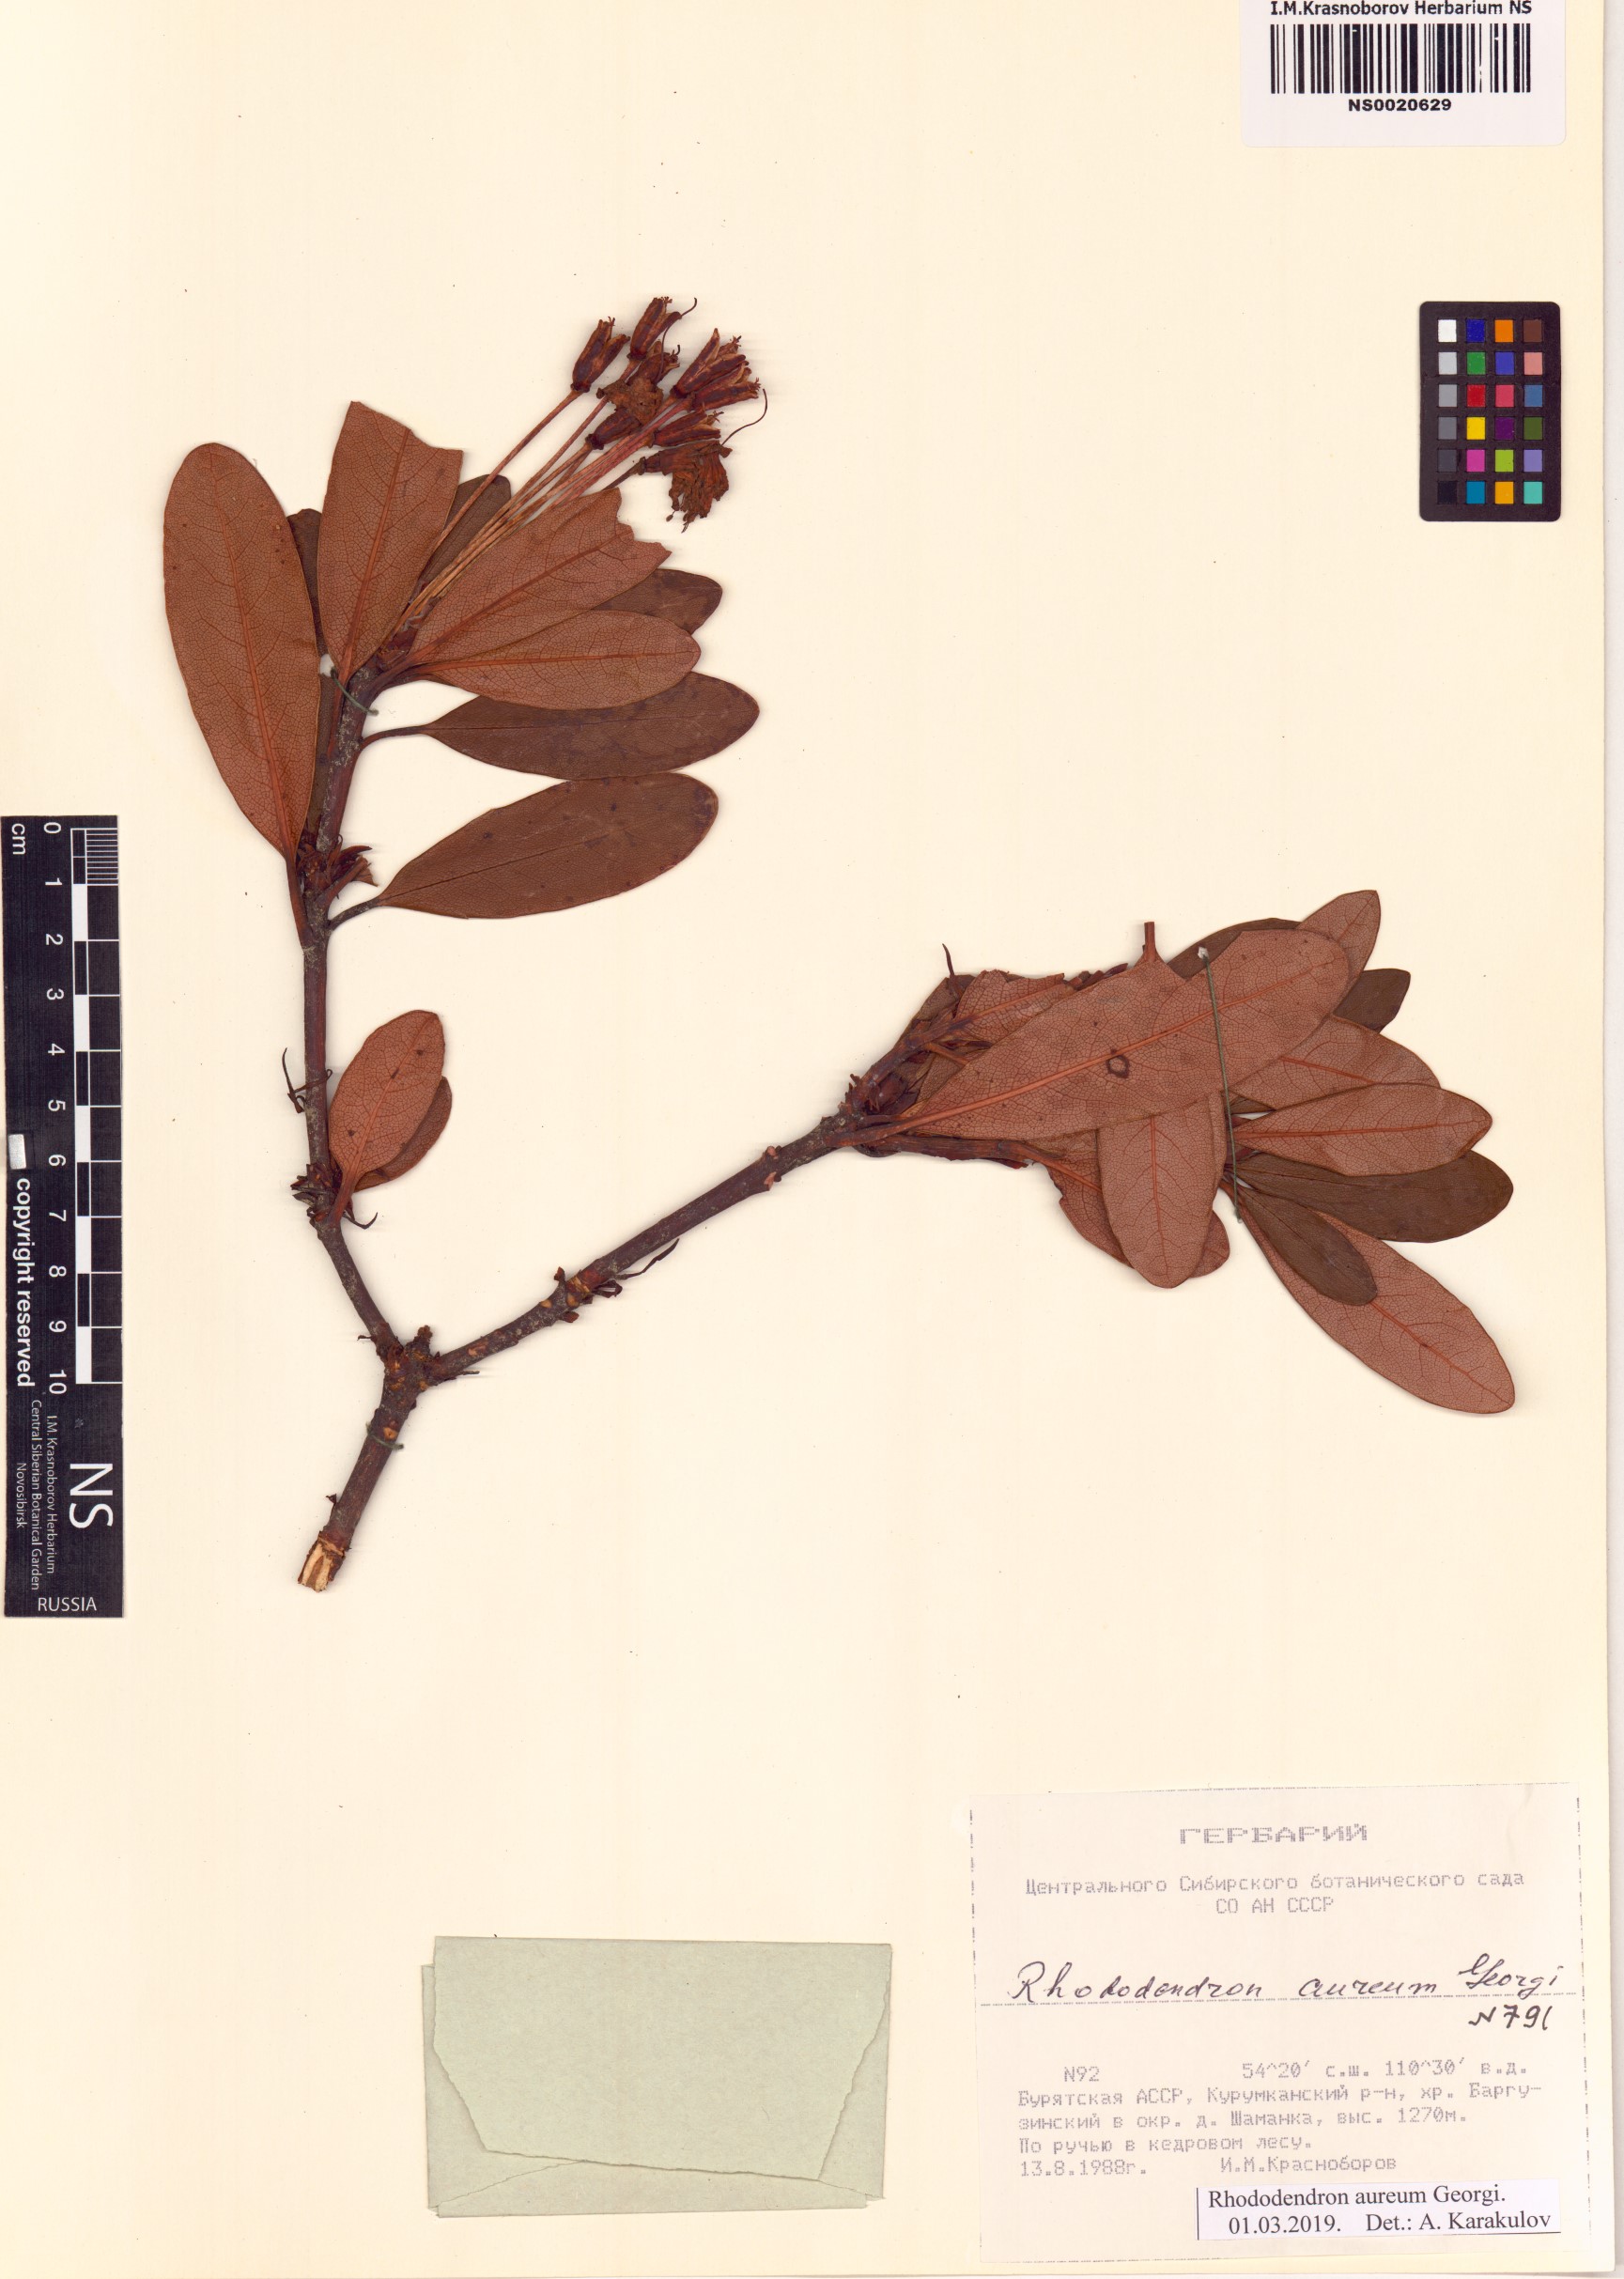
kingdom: Plantae
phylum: Tracheophyta
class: Magnoliopsida
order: Ericales
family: Ericaceae
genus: Rhododendron
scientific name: Rhododendron aureum
